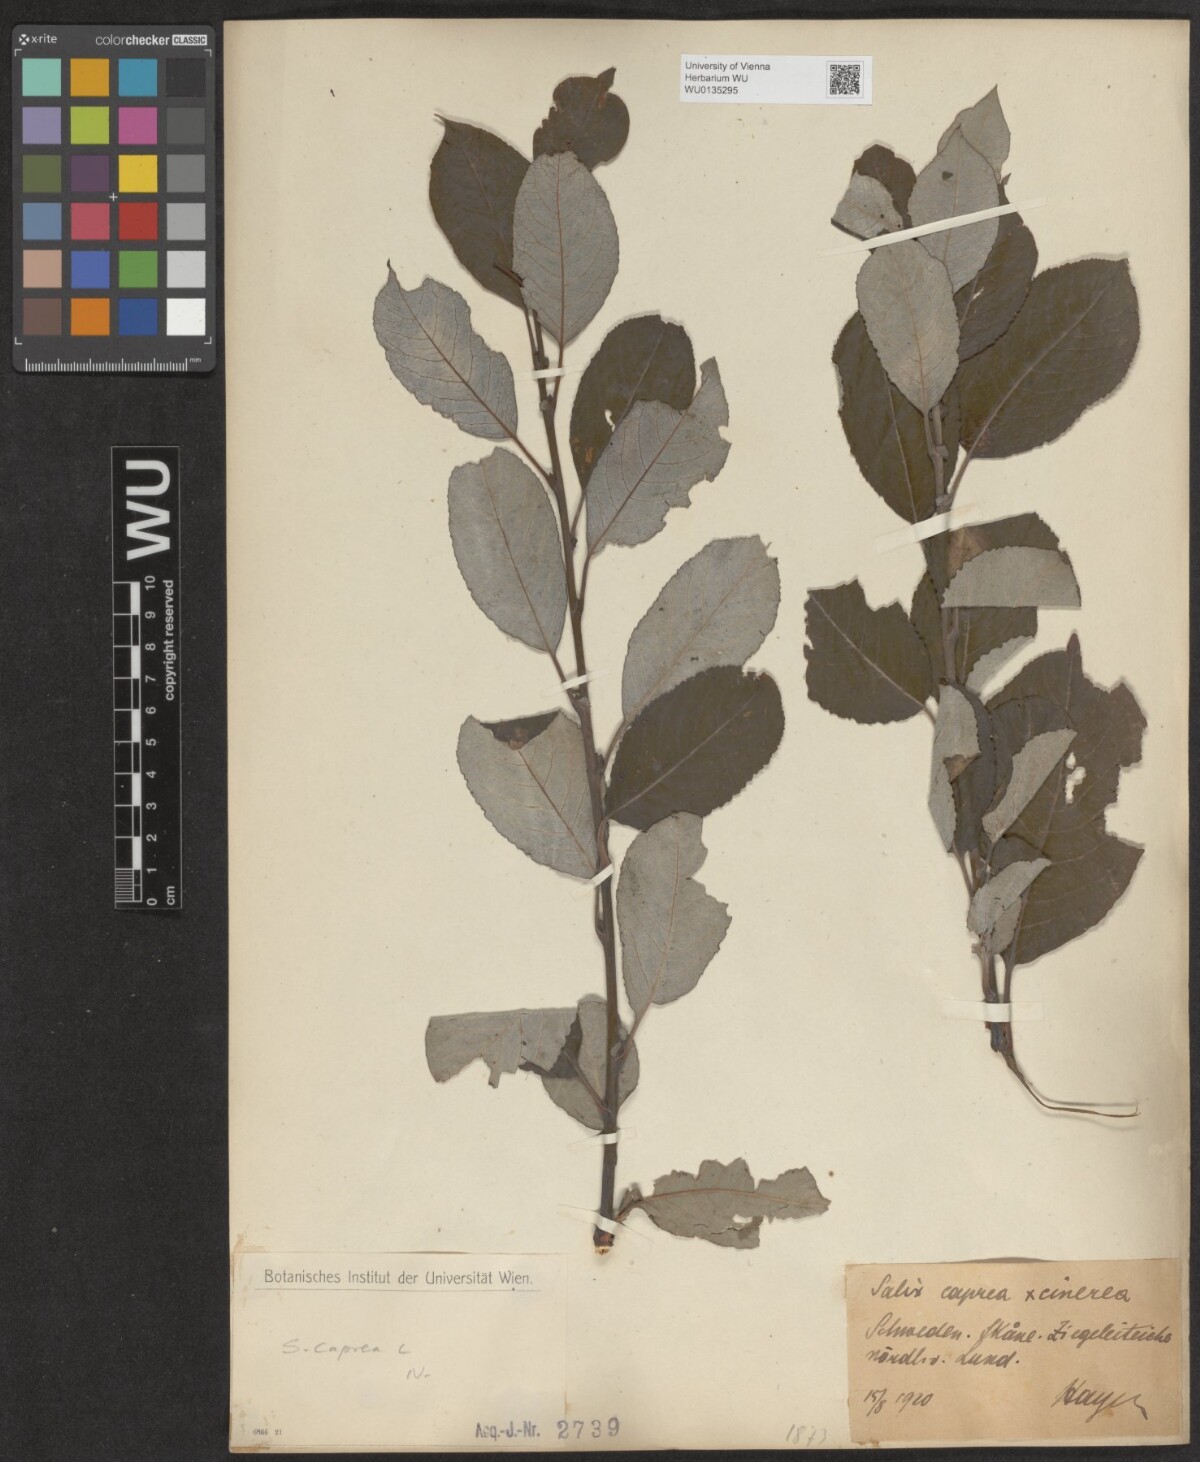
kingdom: Plantae
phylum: Tracheophyta
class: Magnoliopsida
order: Malpighiales
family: Salicaceae
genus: Salix
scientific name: Salix caprea
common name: Goat willow
